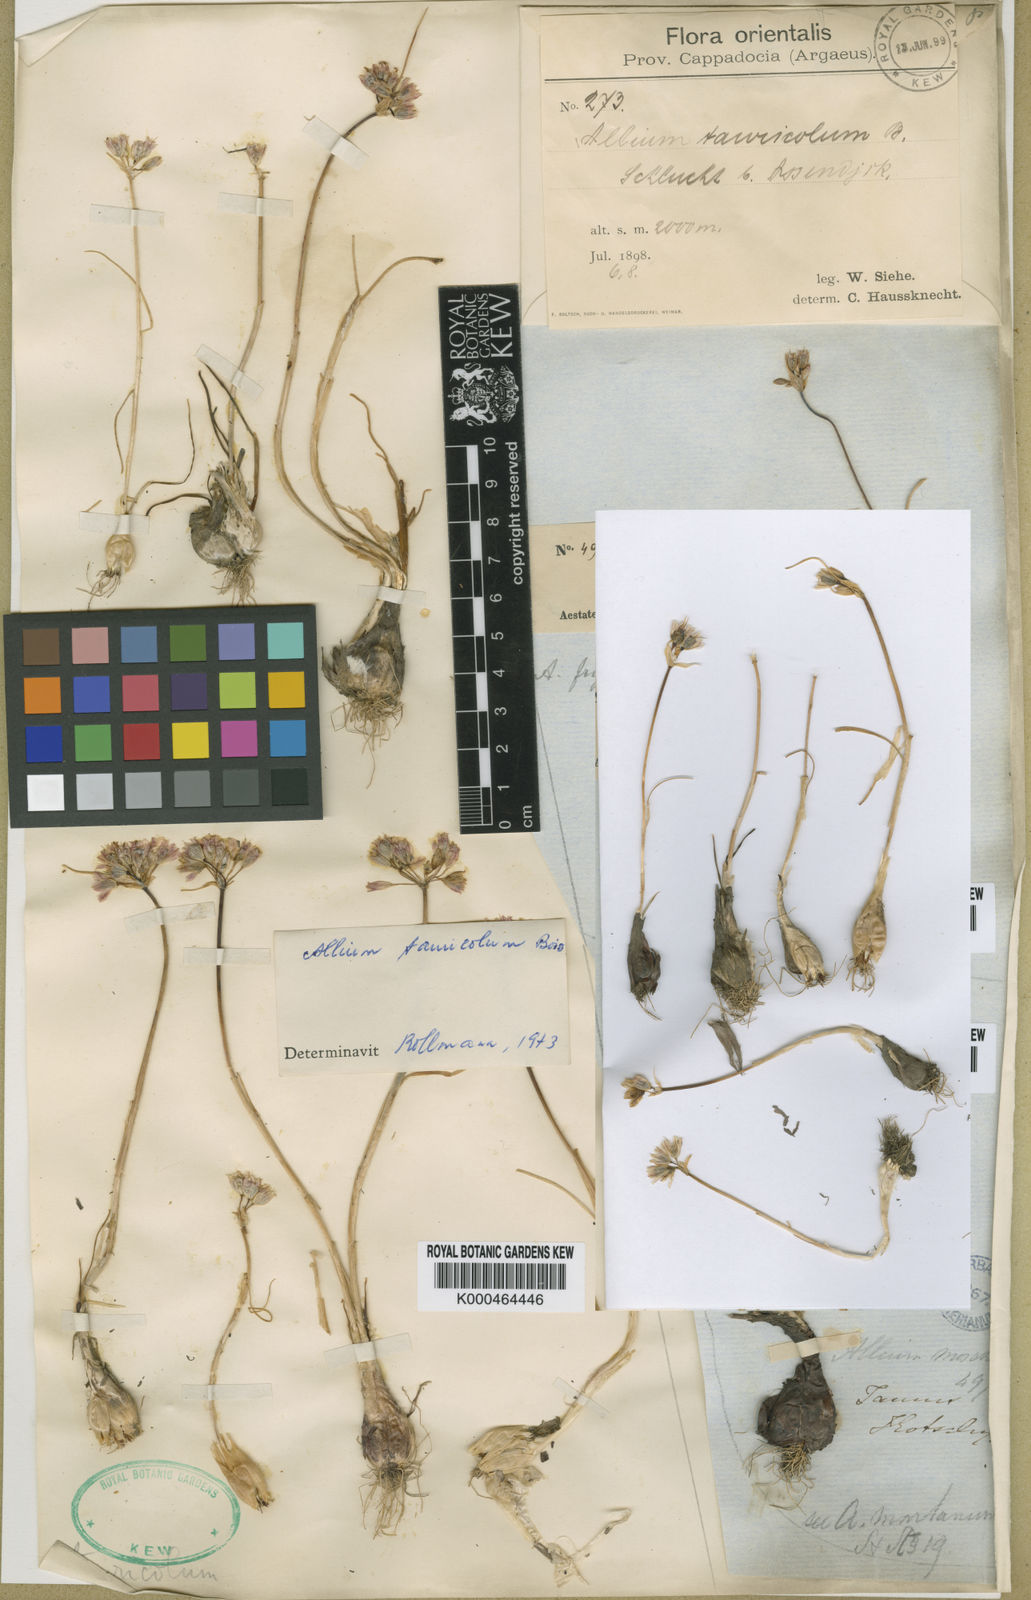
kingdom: Plantae
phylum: Tracheophyta
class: Liliopsida
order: Asparagales
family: Amaryllidaceae
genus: Allium
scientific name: Allium frigidum
